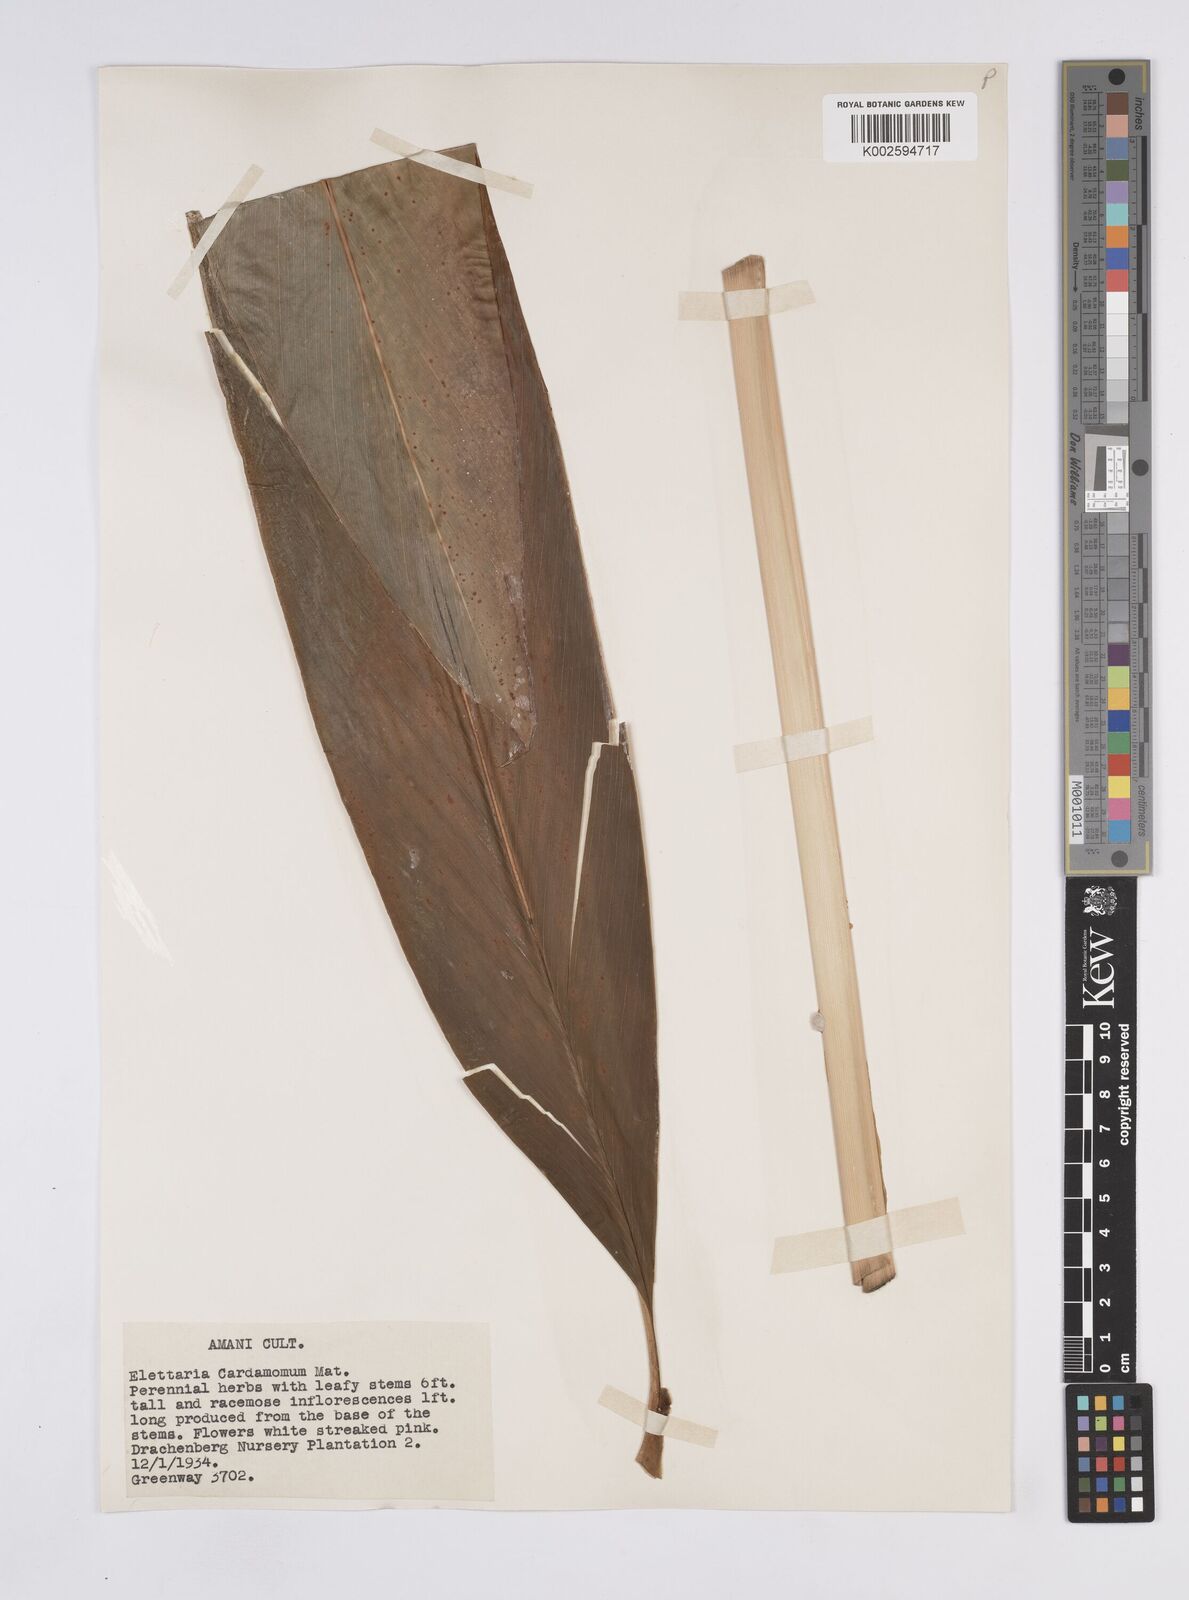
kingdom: Plantae
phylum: Tracheophyta
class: Liliopsida
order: Zingiberales
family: Zingiberaceae
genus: Elettaria
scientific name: Elettaria cardamomum
